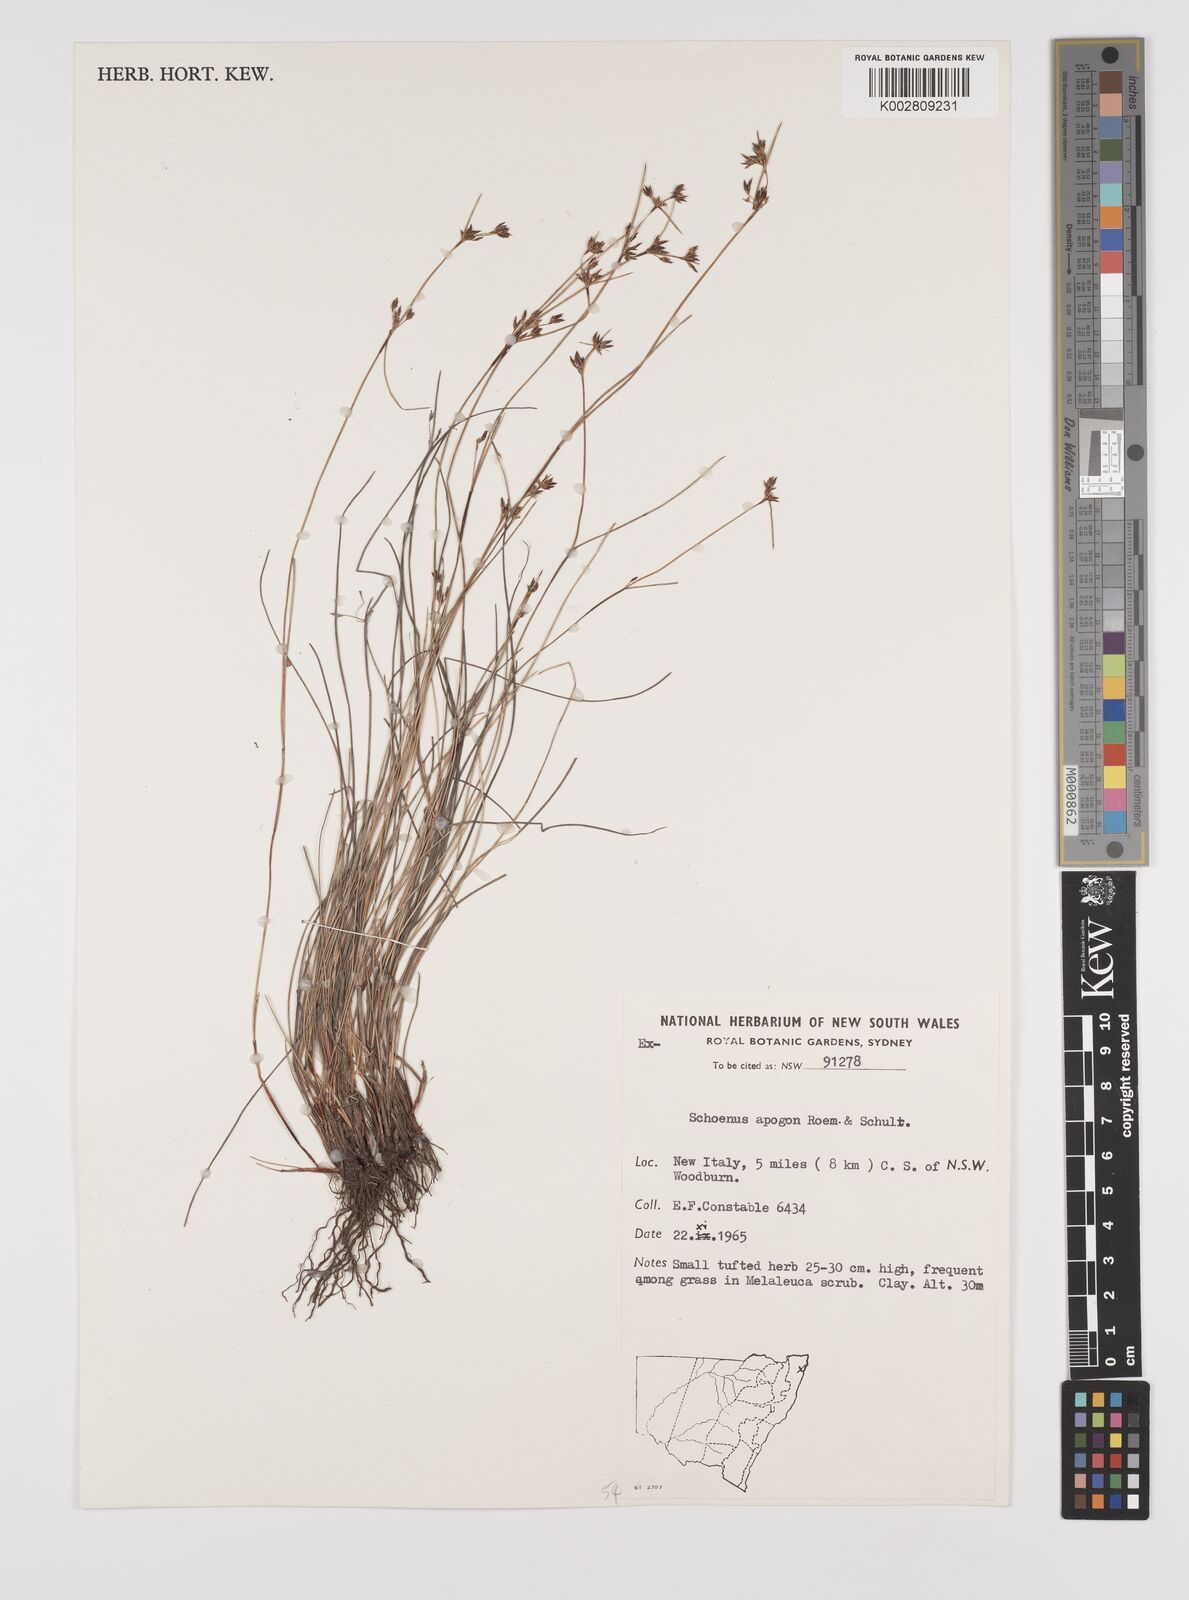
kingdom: Plantae
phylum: Tracheophyta
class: Liliopsida
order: Poales
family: Cyperaceae
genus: Schoenus
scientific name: Schoenus apogon
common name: Smooth bogrush
